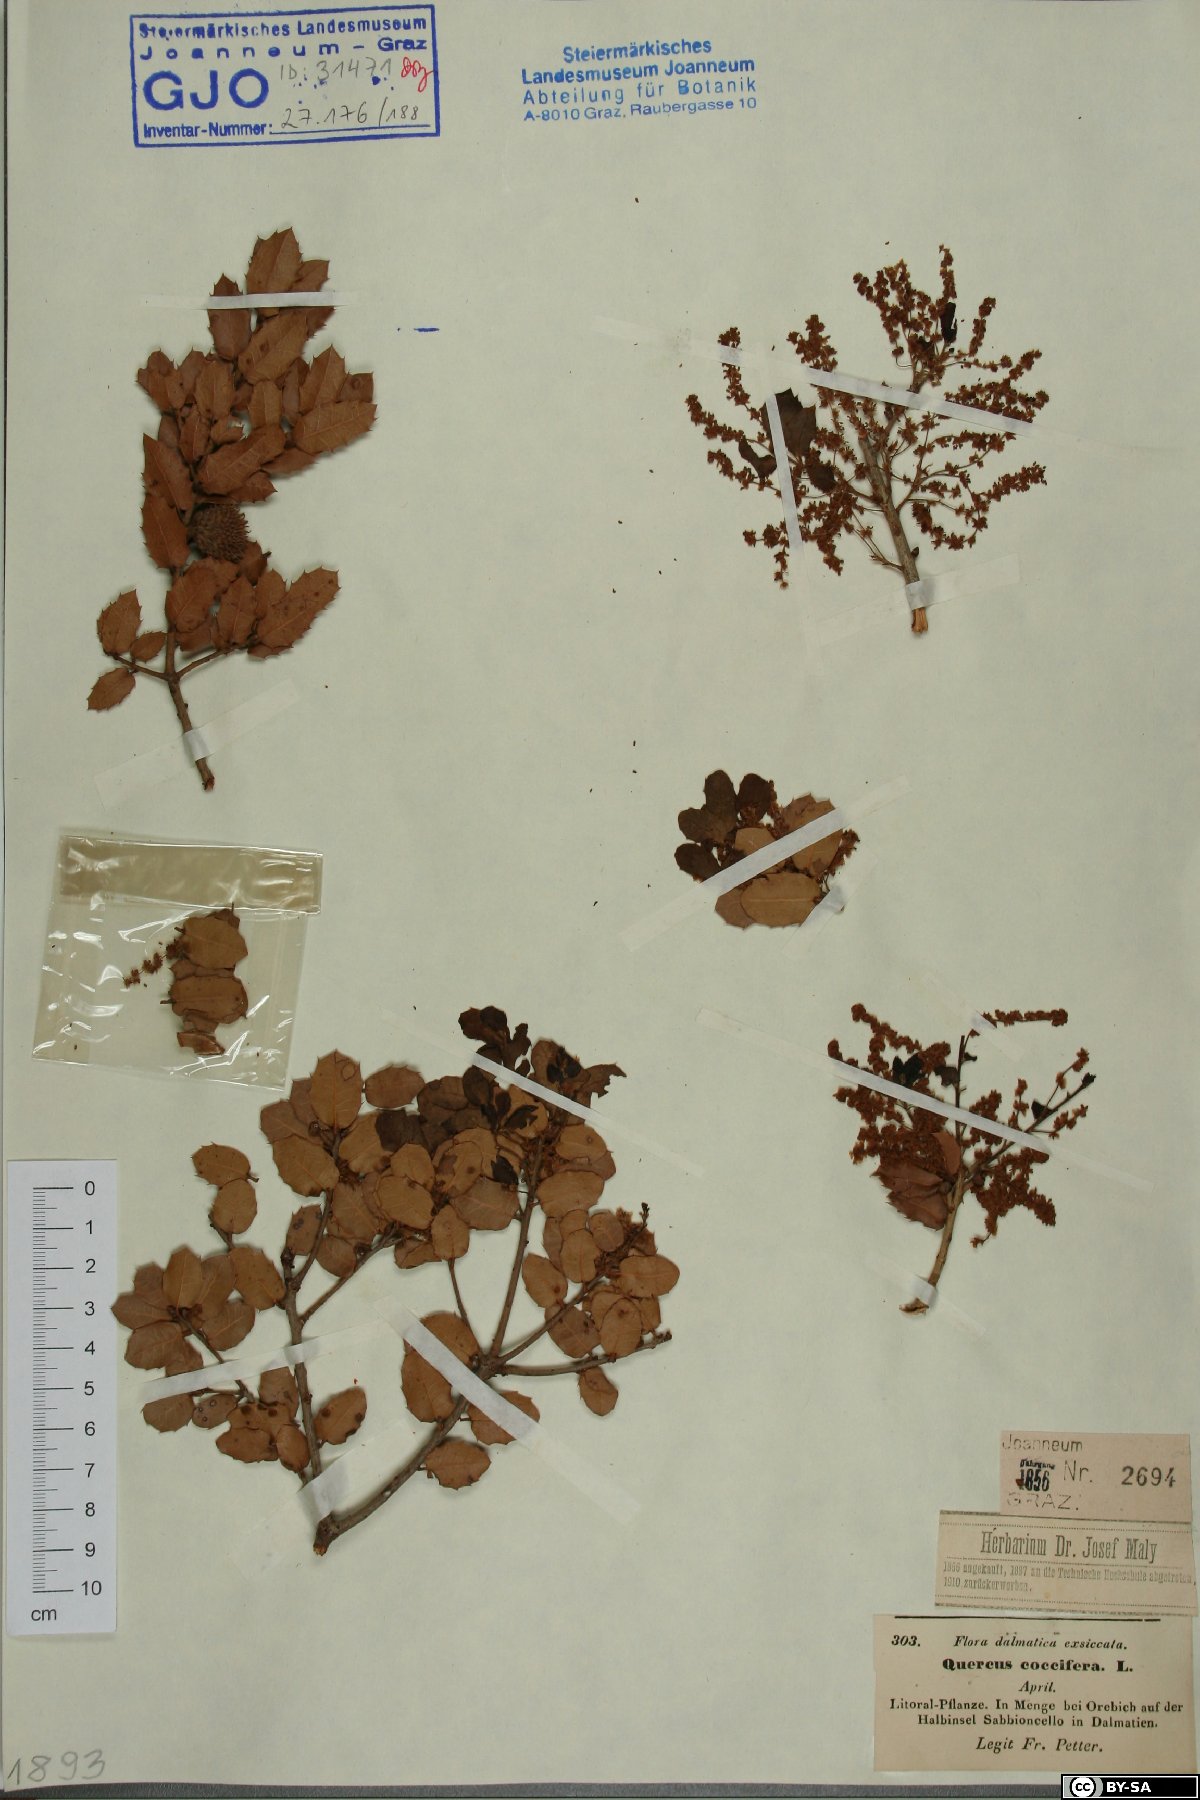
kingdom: Plantae
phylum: Tracheophyta
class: Magnoliopsida
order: Fagales
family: Fagaceae
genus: Quercus
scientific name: Quercus coccifera
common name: Kermes oak
